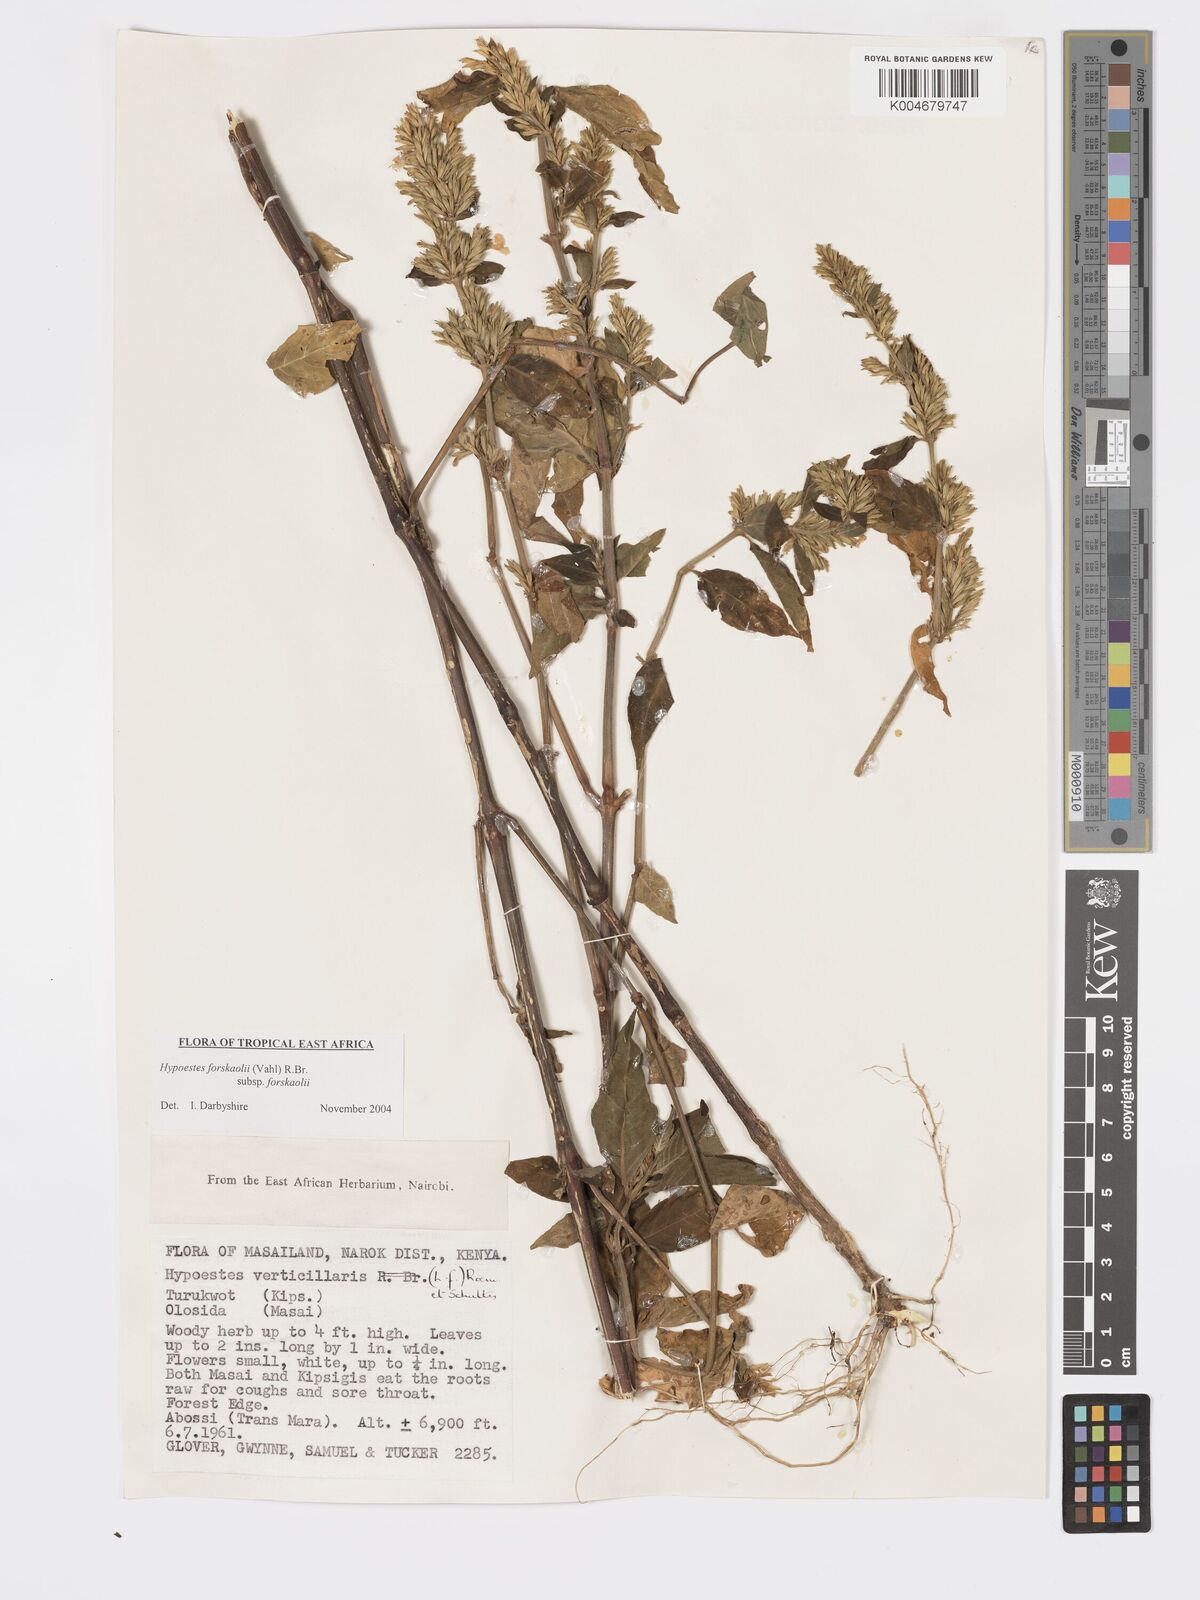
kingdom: Plantae
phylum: Tracheophyta
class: Magnoliopsida
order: Lamiales
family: Acanthaceae
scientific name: Acanthaceae
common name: Acanthaceae
